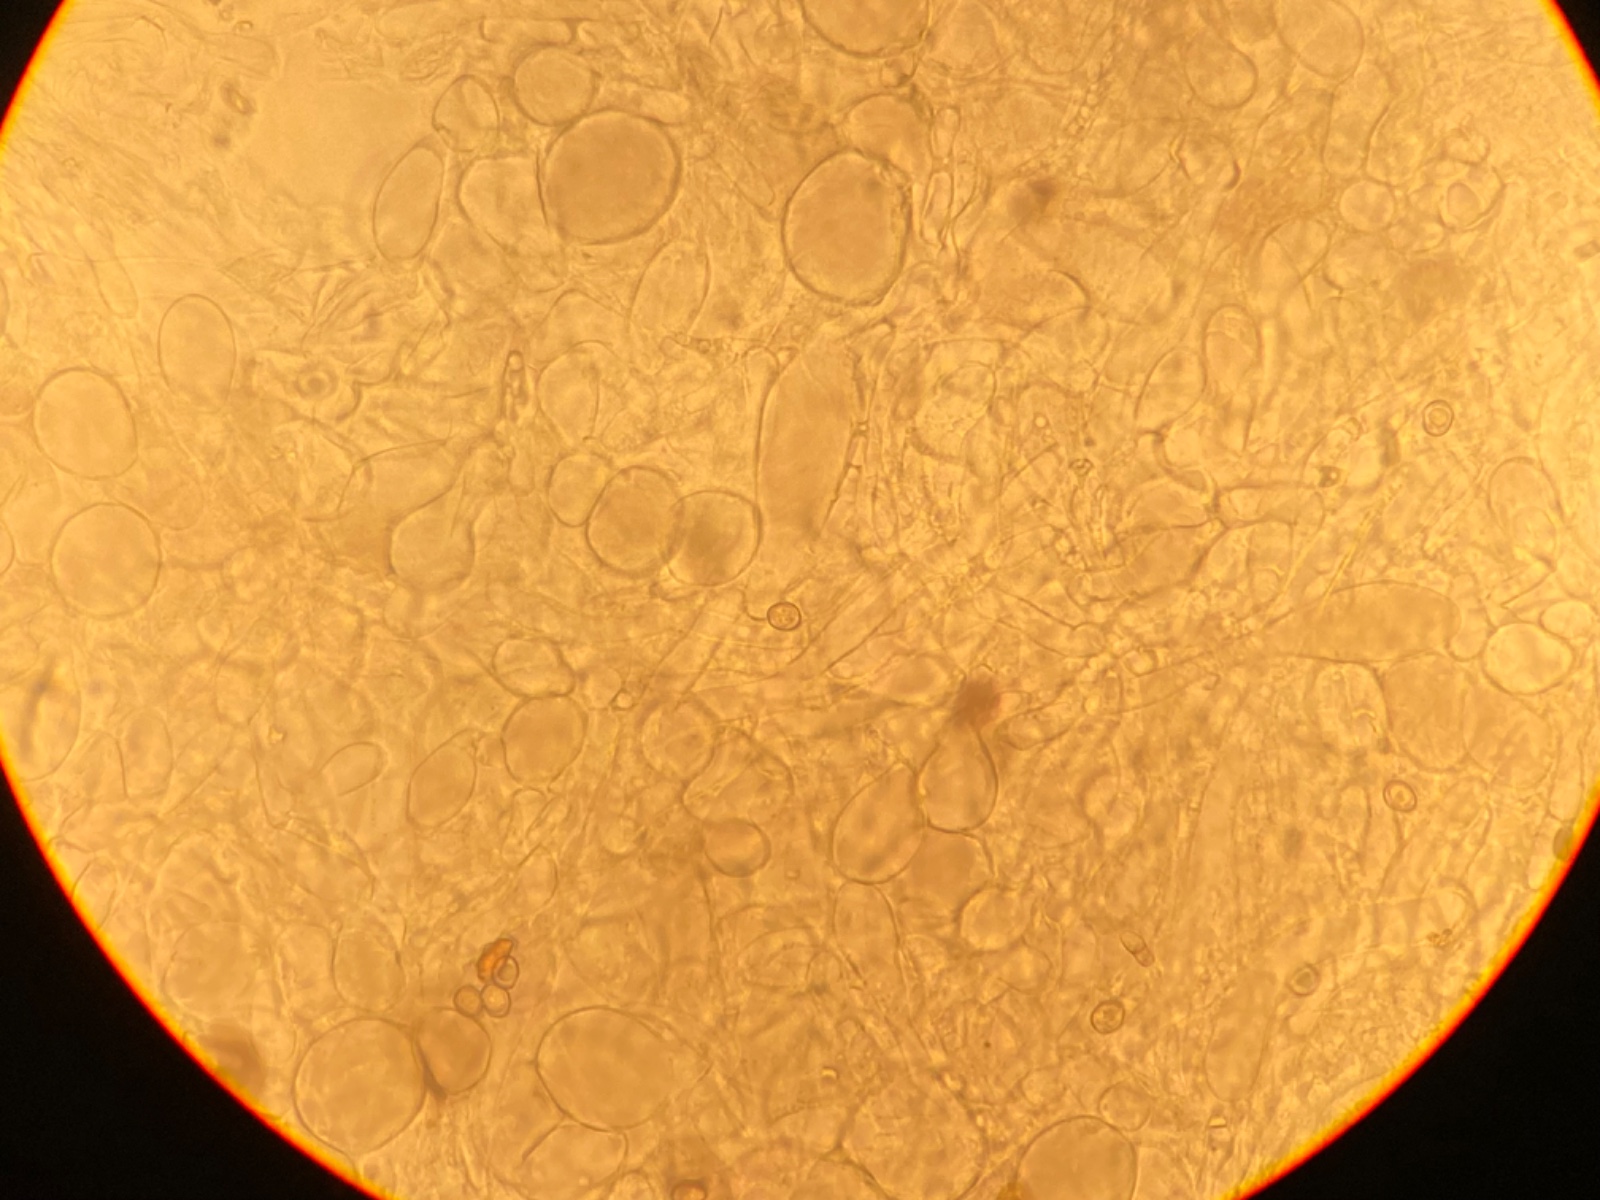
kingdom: Fungi
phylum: Basidiomycota
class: Agaricomycetes
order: Agaricales
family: Pluteaceae
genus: Pluteus
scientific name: Pluteus
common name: pudret skærmhat
